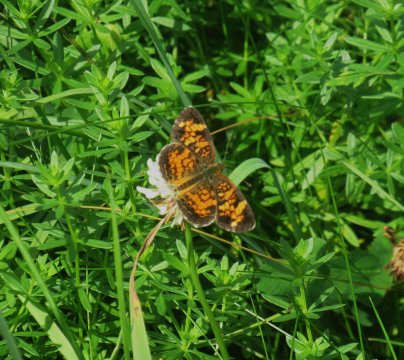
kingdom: Animalia
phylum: Arthropoda
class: Insecta
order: Lepidoptera
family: Nymphalidae
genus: Phyciodes
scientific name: Phyciodes tharos
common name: Pearl Crescent
